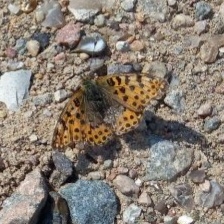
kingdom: Animalia
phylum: Arthropoda
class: Insecta
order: Lepidoptera
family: Nymphalidae
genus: Issoria
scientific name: Issoria lathonia
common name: Storplettet perlemorsommerfugl
